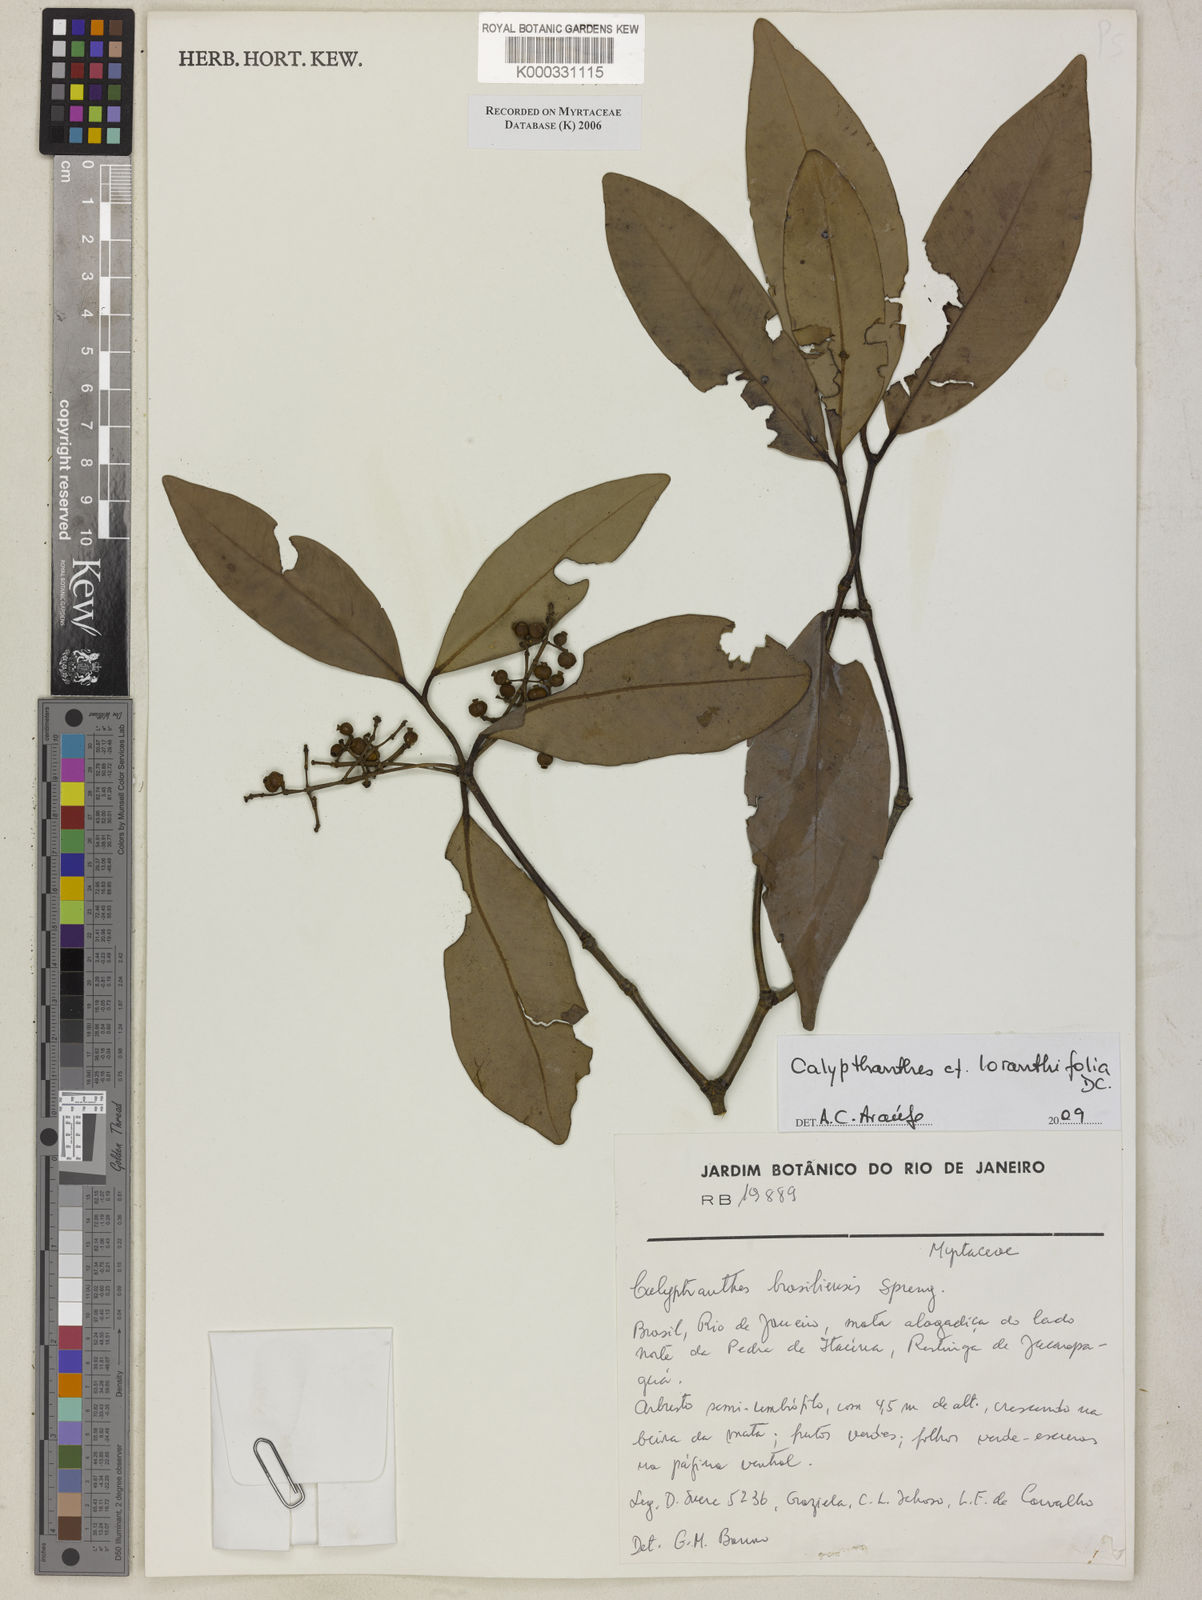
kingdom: Plantae
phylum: Tracheophyta
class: Magnoliopsida
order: Myrtales
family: Myrtaceae
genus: Myrcia
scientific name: Myrcia neobrasiliensis
